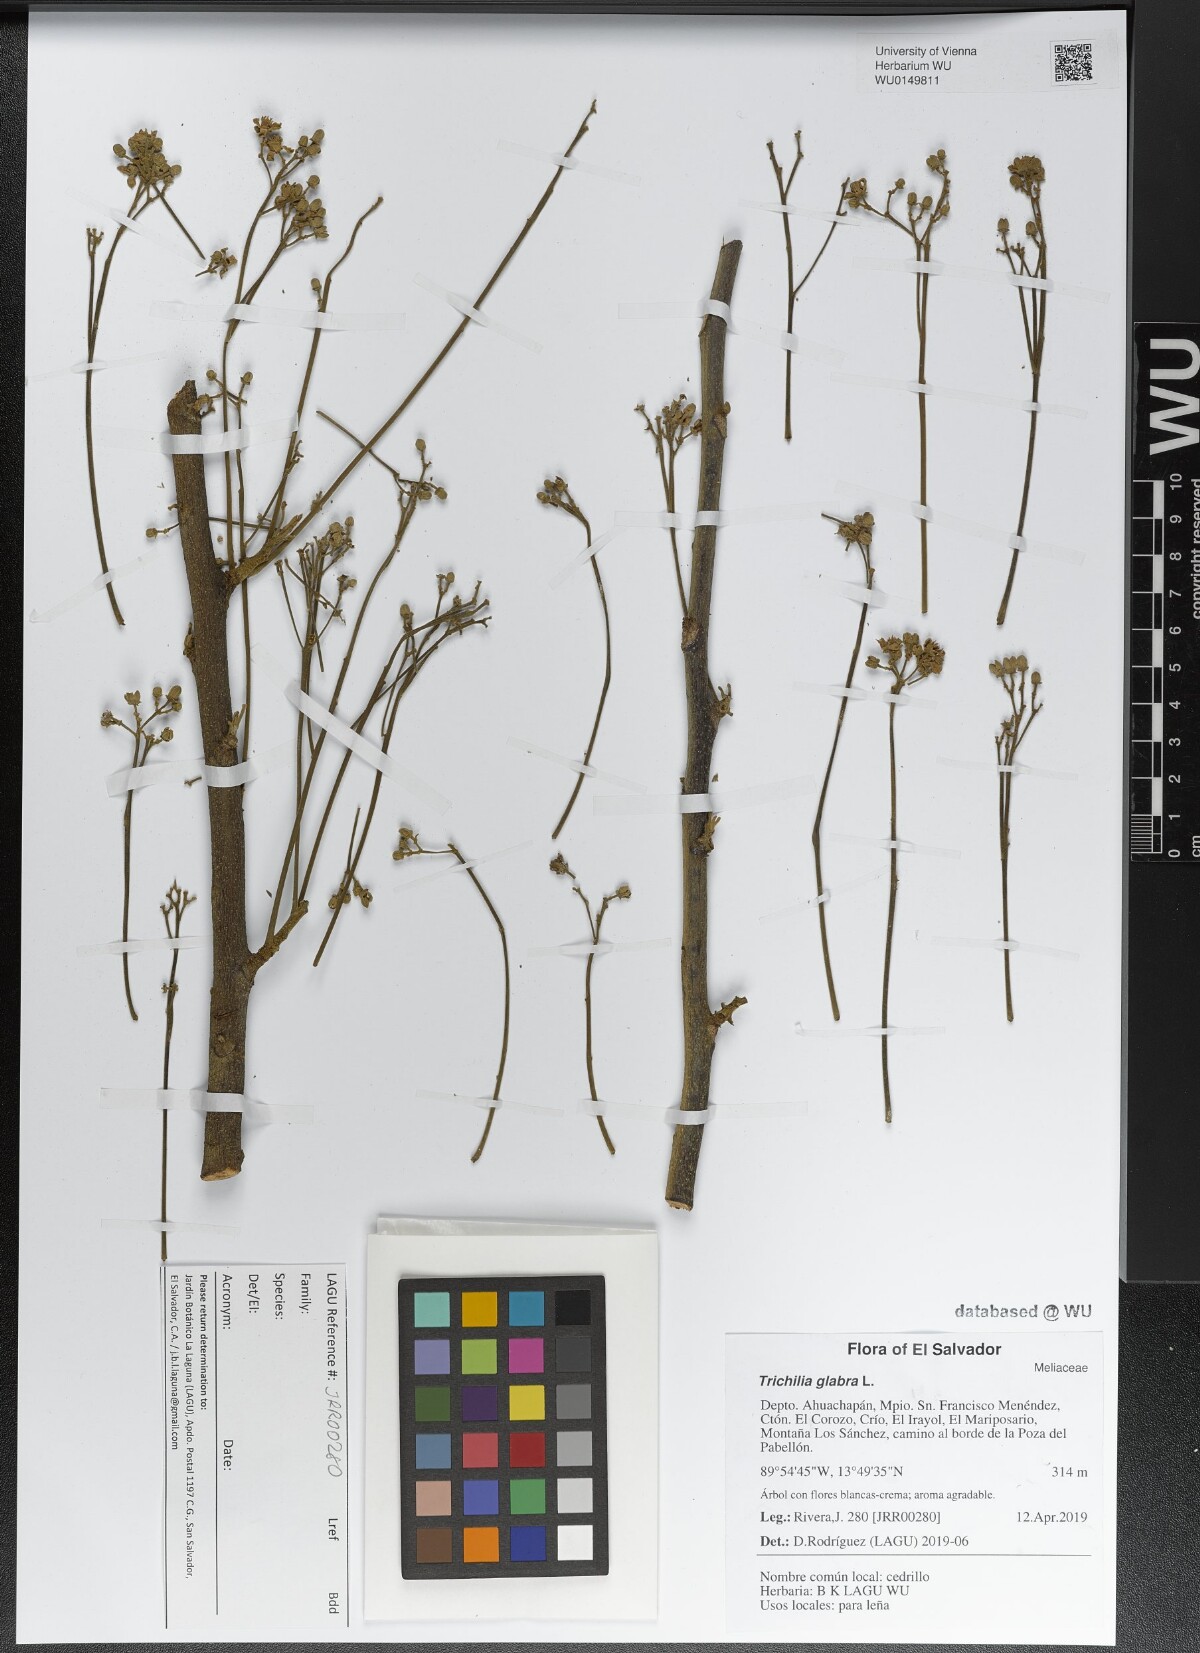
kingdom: Plantae
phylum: Tracheophyta
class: Magnoliopsida
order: Sapindales
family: Meliaceae
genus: Trichilia
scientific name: Trichilia glabra
